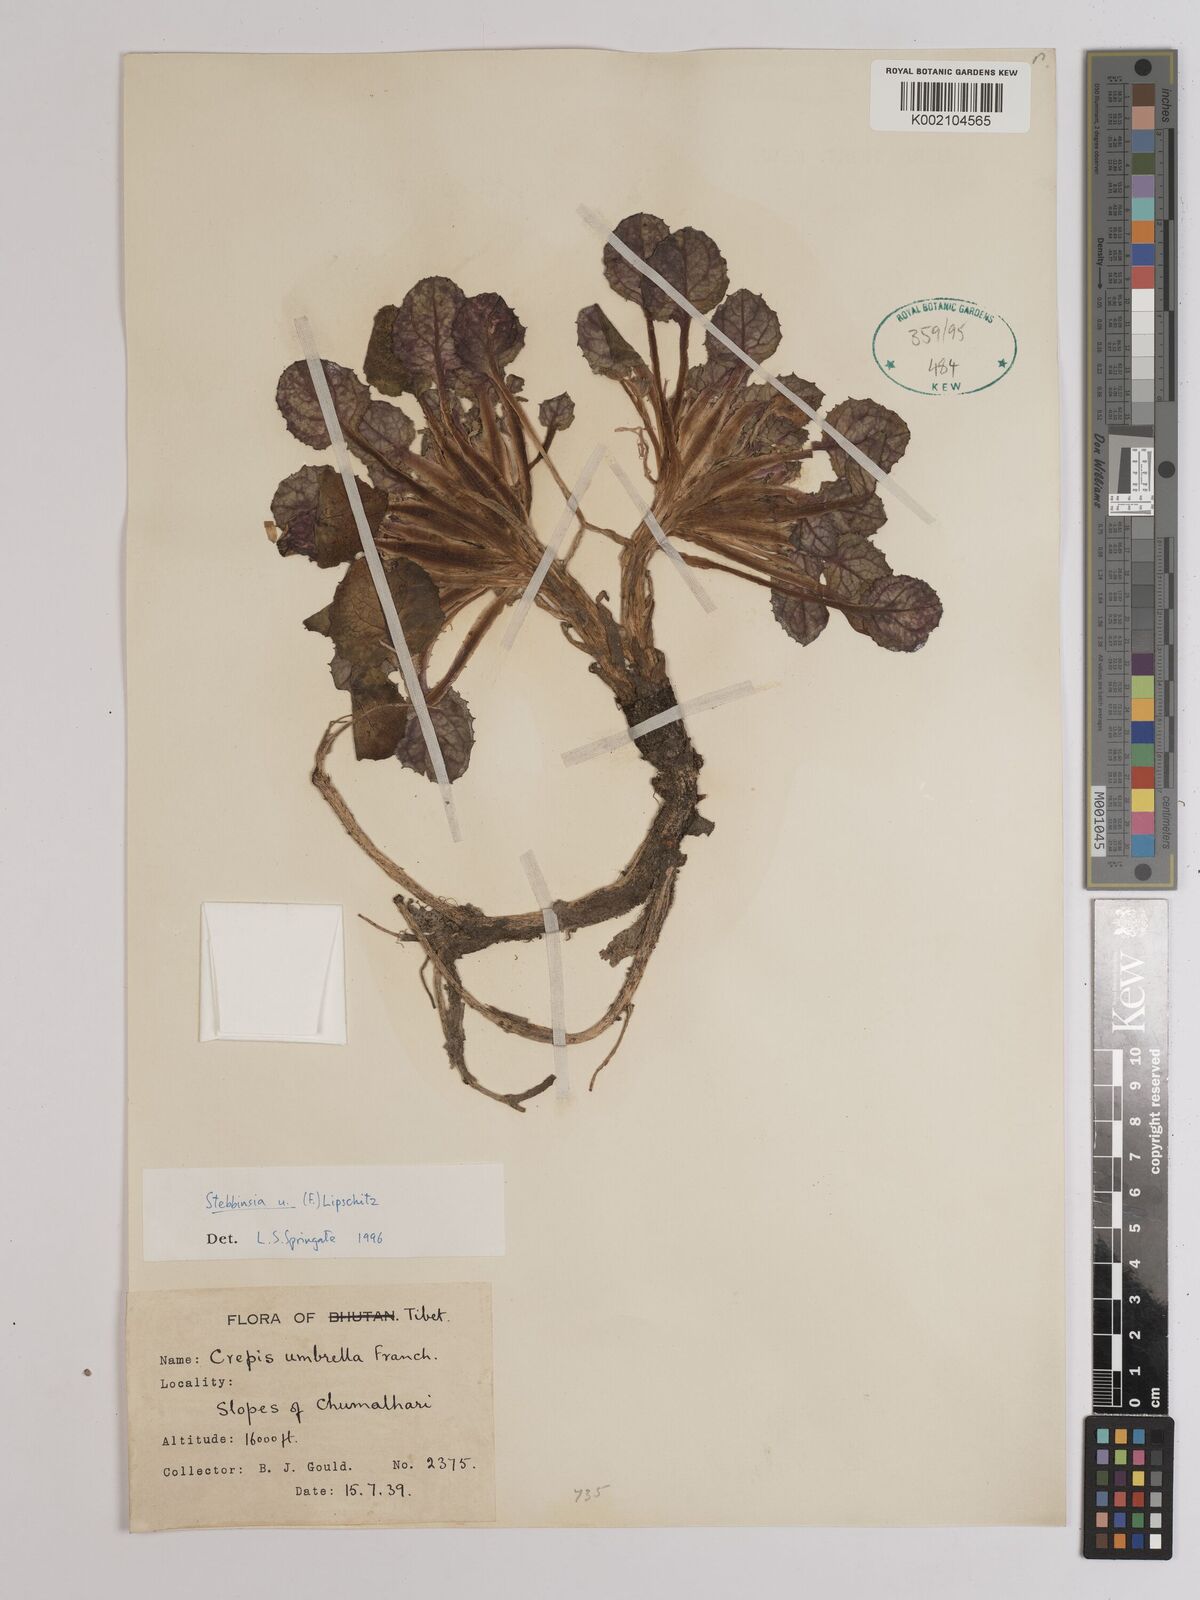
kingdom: Plantae
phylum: Tracheophyta
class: Magnoliopsida
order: Asterales
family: Asteraceae
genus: Soroseris
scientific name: Soroseris umbrella
